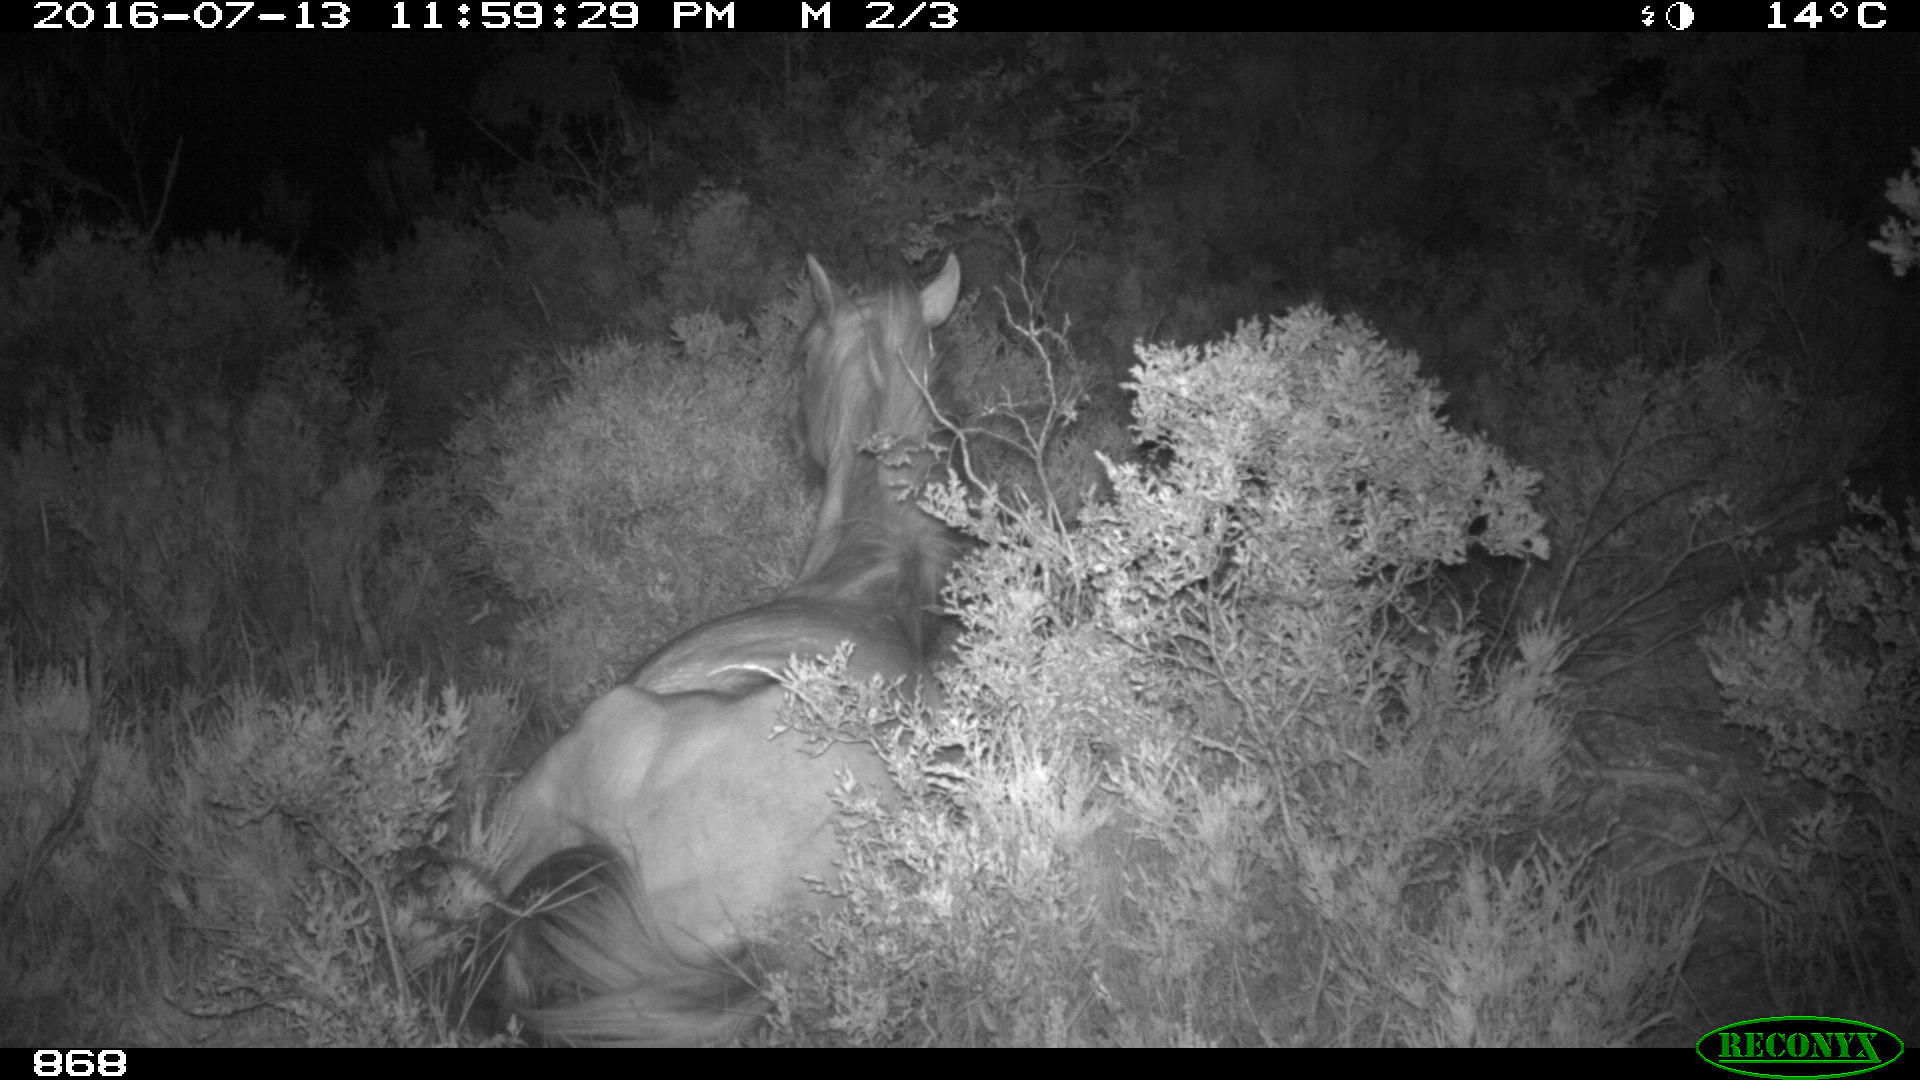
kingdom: Animalia
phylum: Chordata
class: Mammalia
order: Perissodactyla
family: Equidae
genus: Equus
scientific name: Equus caballus
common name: Horse
